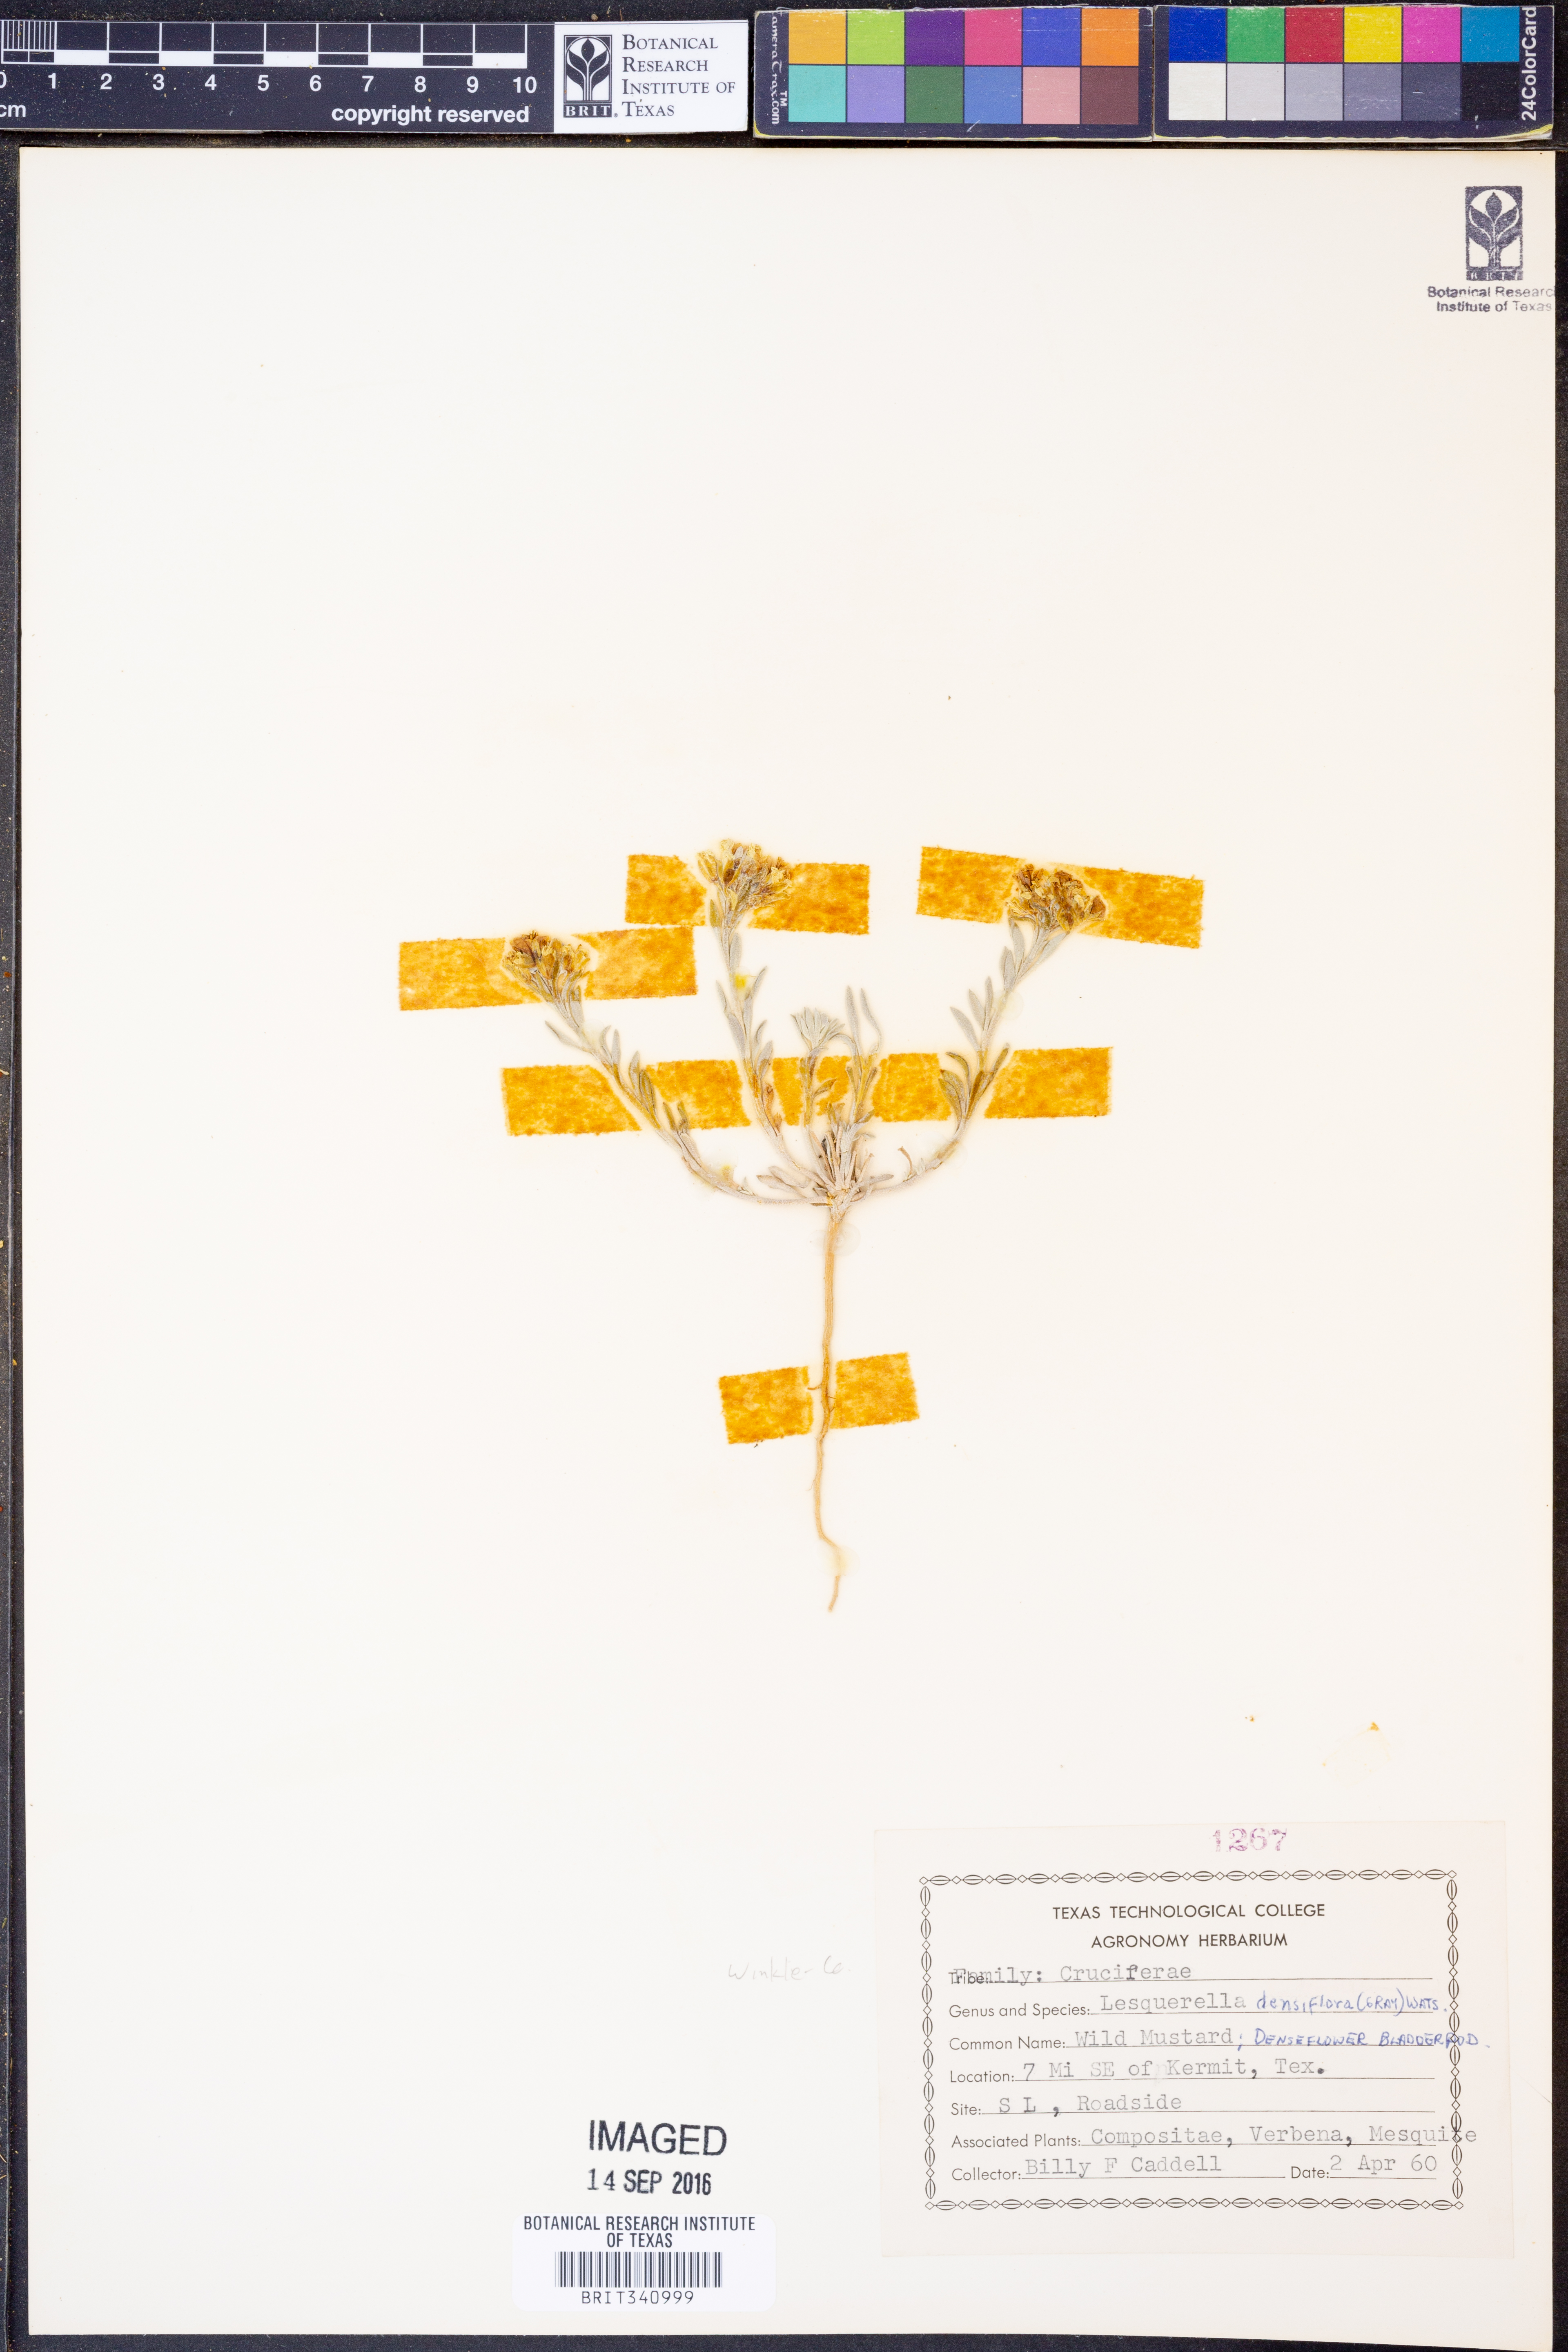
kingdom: Plantae
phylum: Tracheophyta
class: Magnoliopsida
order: Brassicales
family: Brassicaceae
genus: Physaria
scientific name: Physaria densiflora
